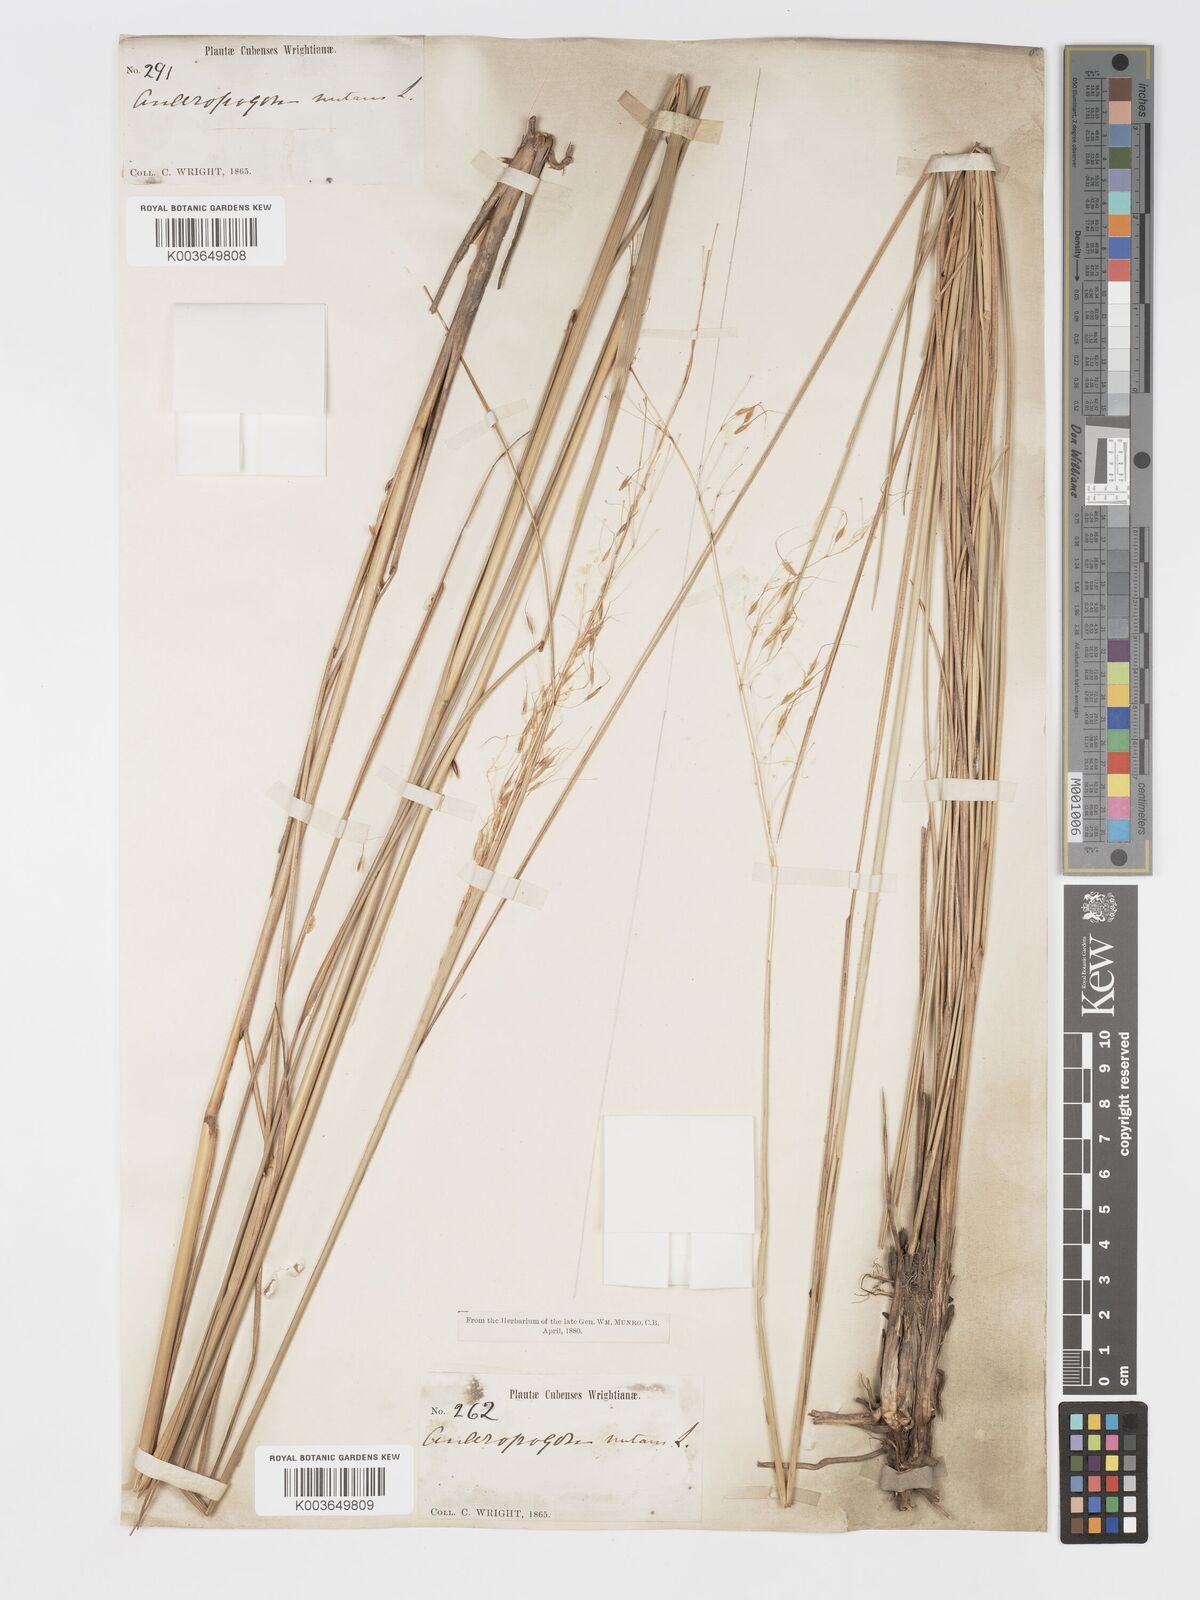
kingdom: Plantae
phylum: Tracheophyta
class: Liliopsida
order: Poales
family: Poaceae
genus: Sorghastrum
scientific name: Sorghastrum stipoides
